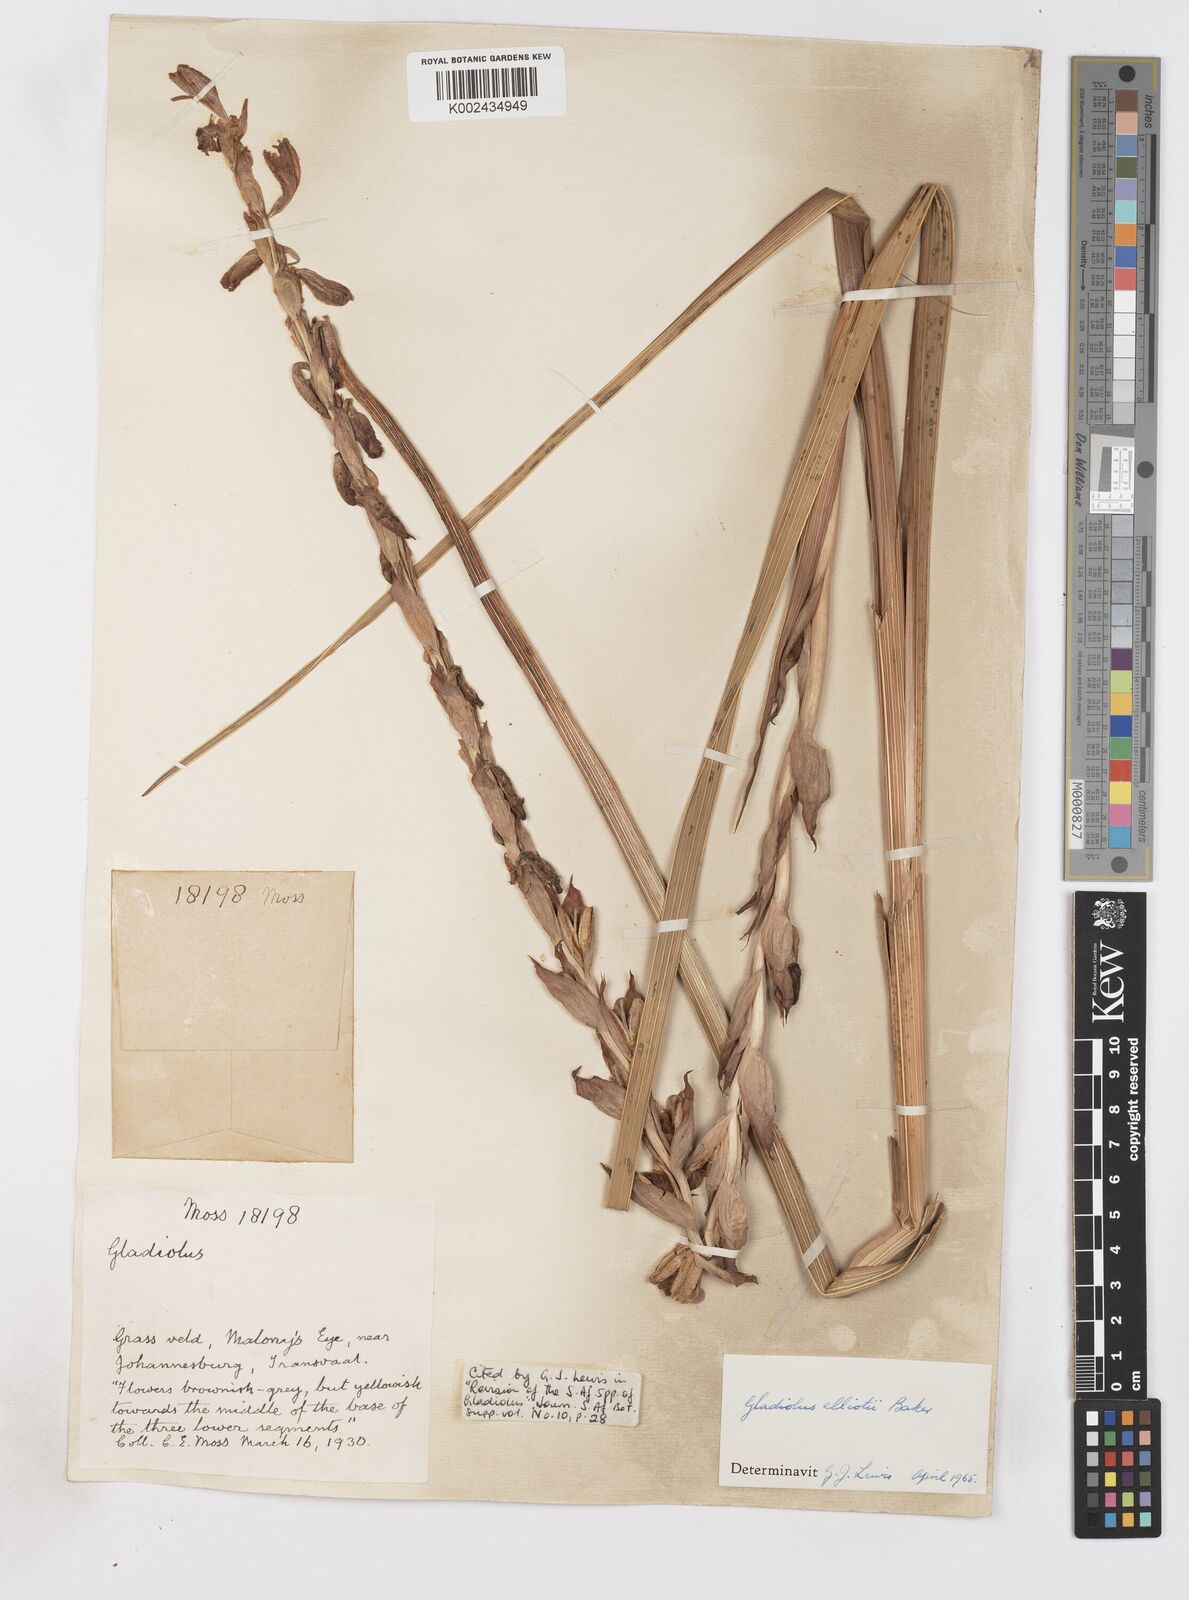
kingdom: Plantae
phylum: Tracheophyta
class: Liliopsida
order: Asparagales
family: Iridaceae
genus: Gladiolus
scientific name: Gladiolus sericeovillosus
